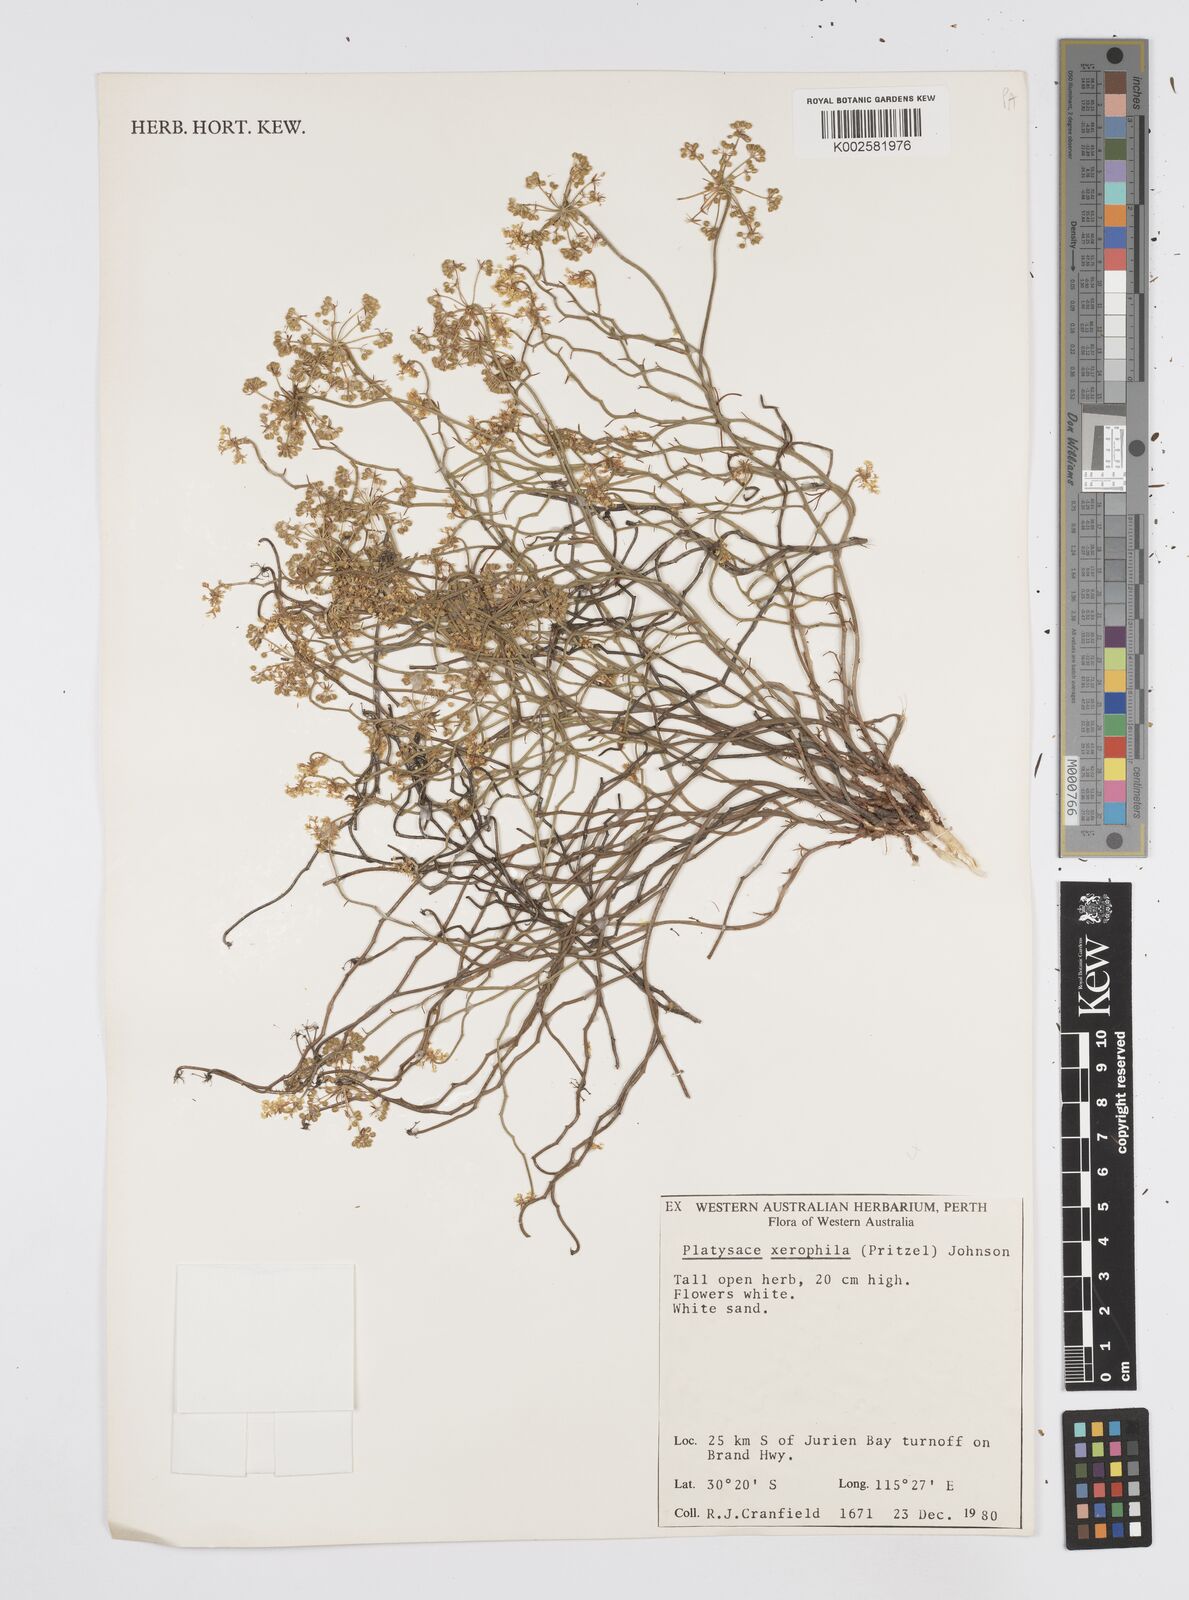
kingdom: Plantae
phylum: Tracheophyta
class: Magnoliopsida
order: Apiales
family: Apiaceae
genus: Platysace
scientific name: Platysace xerophila
